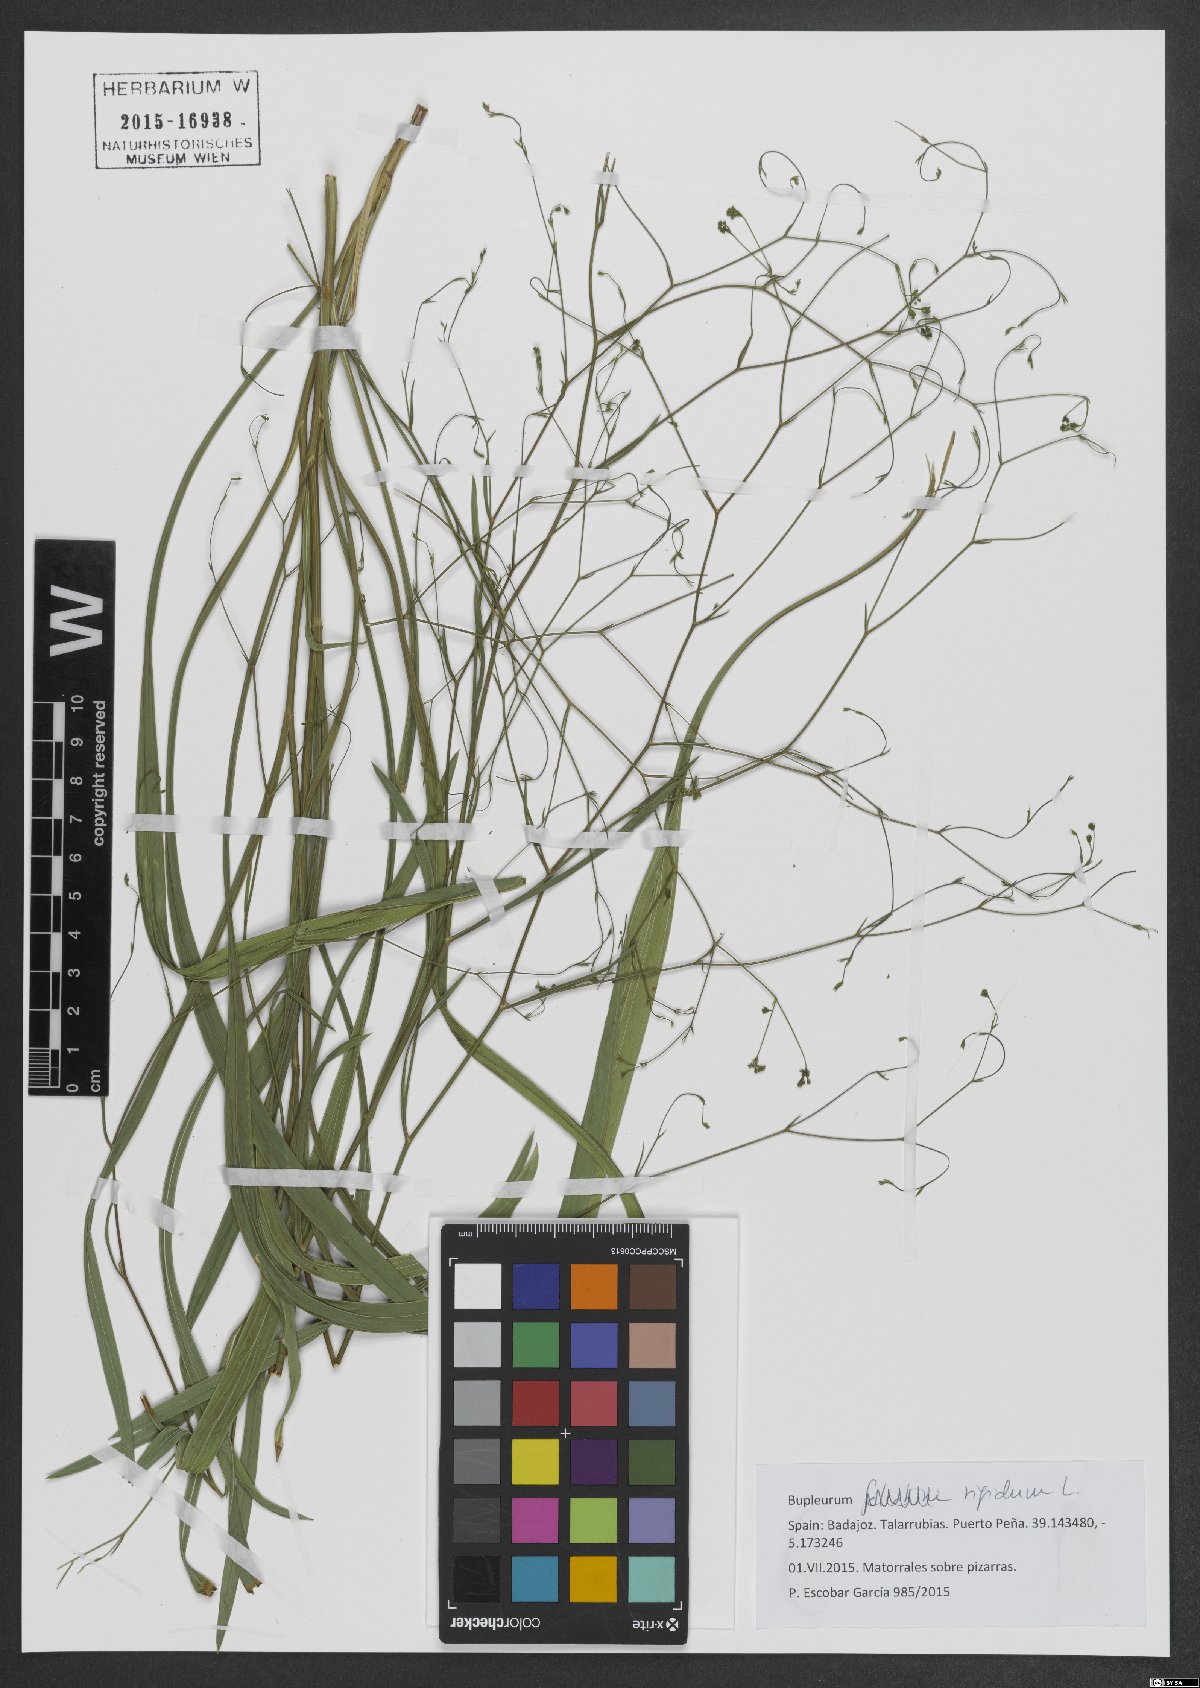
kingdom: Plantae
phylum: Tracheophyta
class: Magnoliopsida
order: Apiales
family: Apiaceae
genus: Bupleurum
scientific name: Bupleurum rigidum
